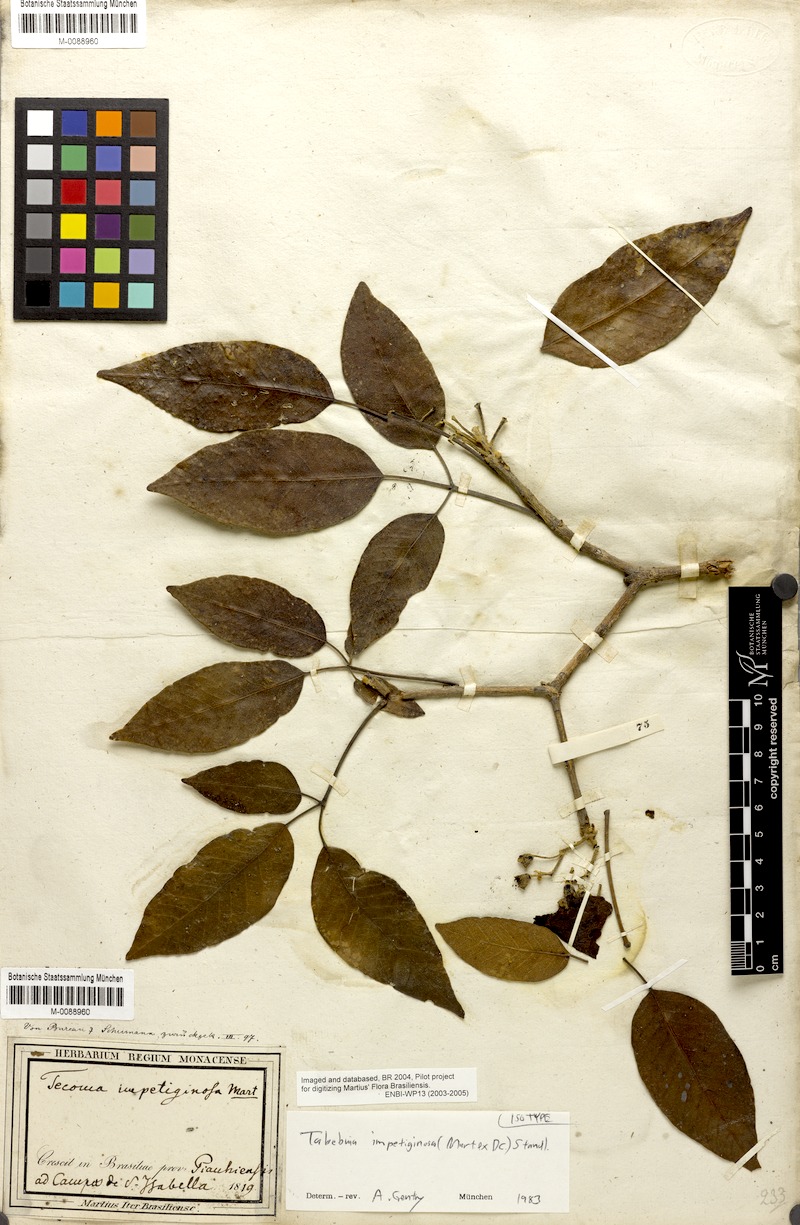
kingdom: Plantae
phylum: Tracheophyta
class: Magnoliopsida
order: Lamiales
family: Bignoniaceae
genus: Handroanthus
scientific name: Handroanthus impetiginosum
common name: Pink trumpet tree
